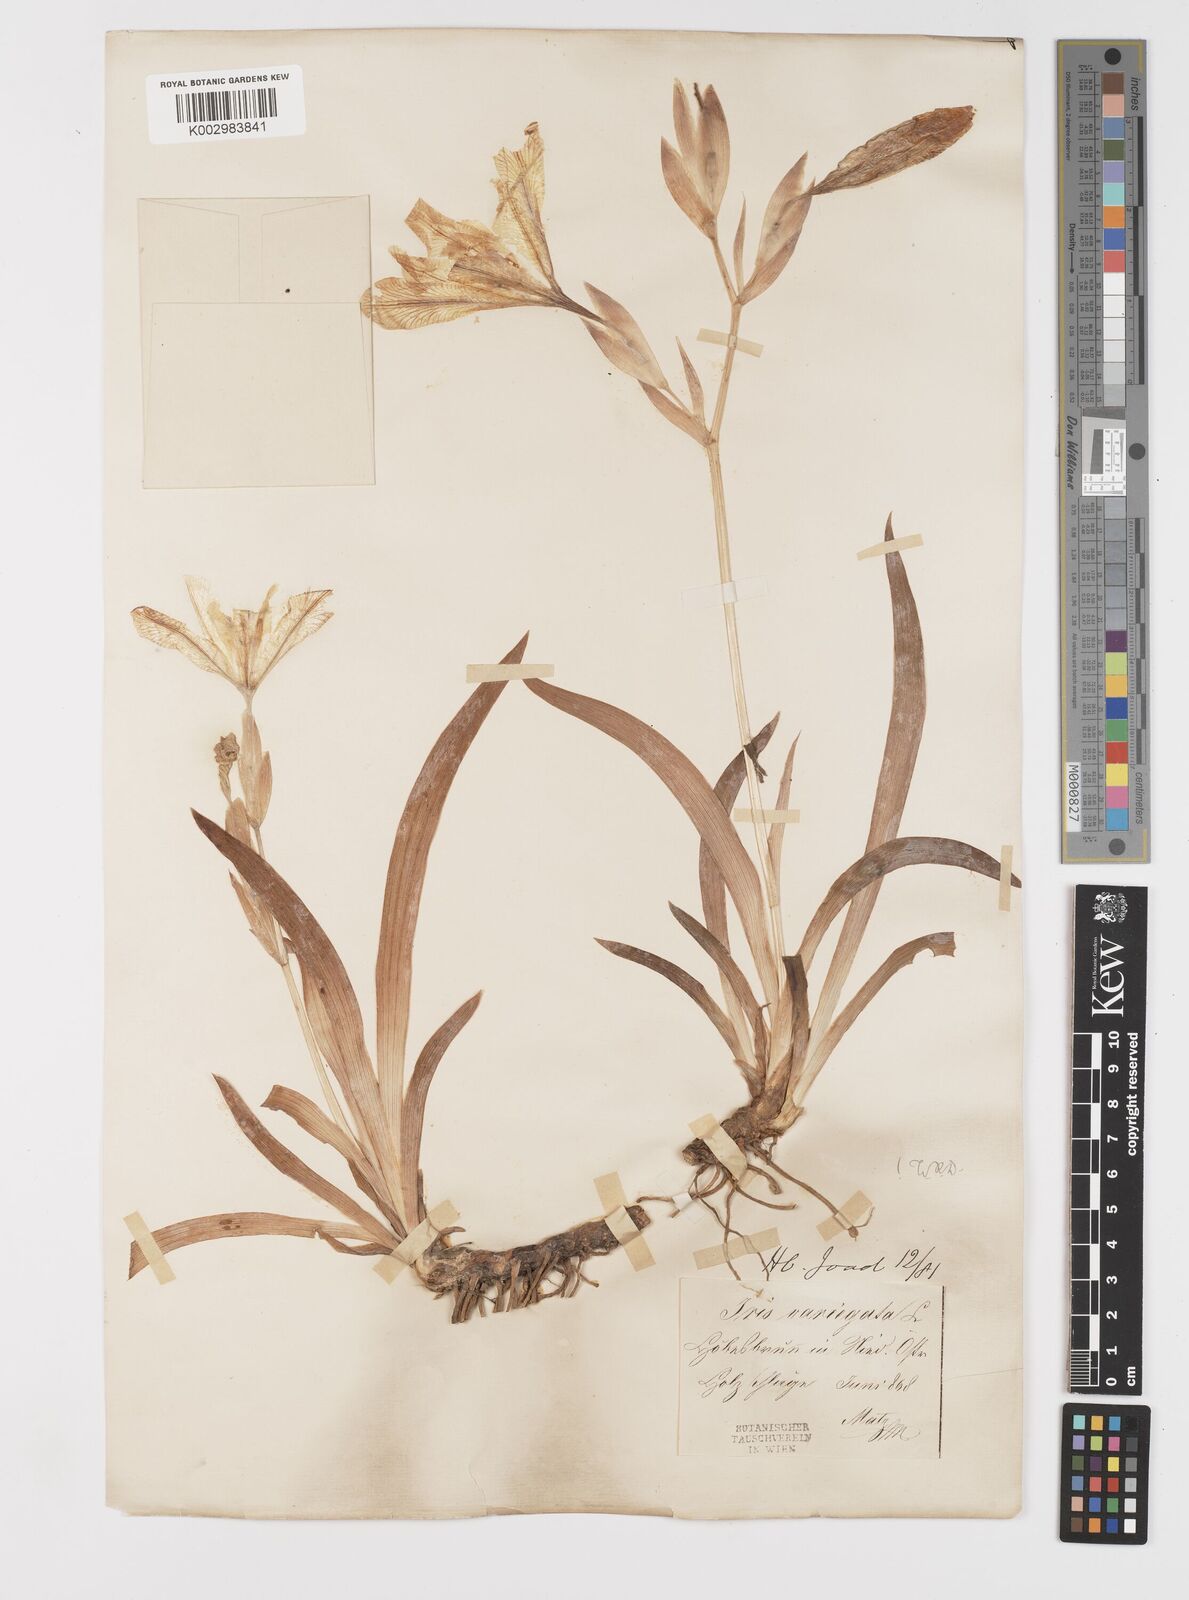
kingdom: Plantae
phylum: Tracheophyta
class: Liliopsida
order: Asparagales
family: Iridaceae
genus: Iris
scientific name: Iris variegata
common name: Hungarian iris
